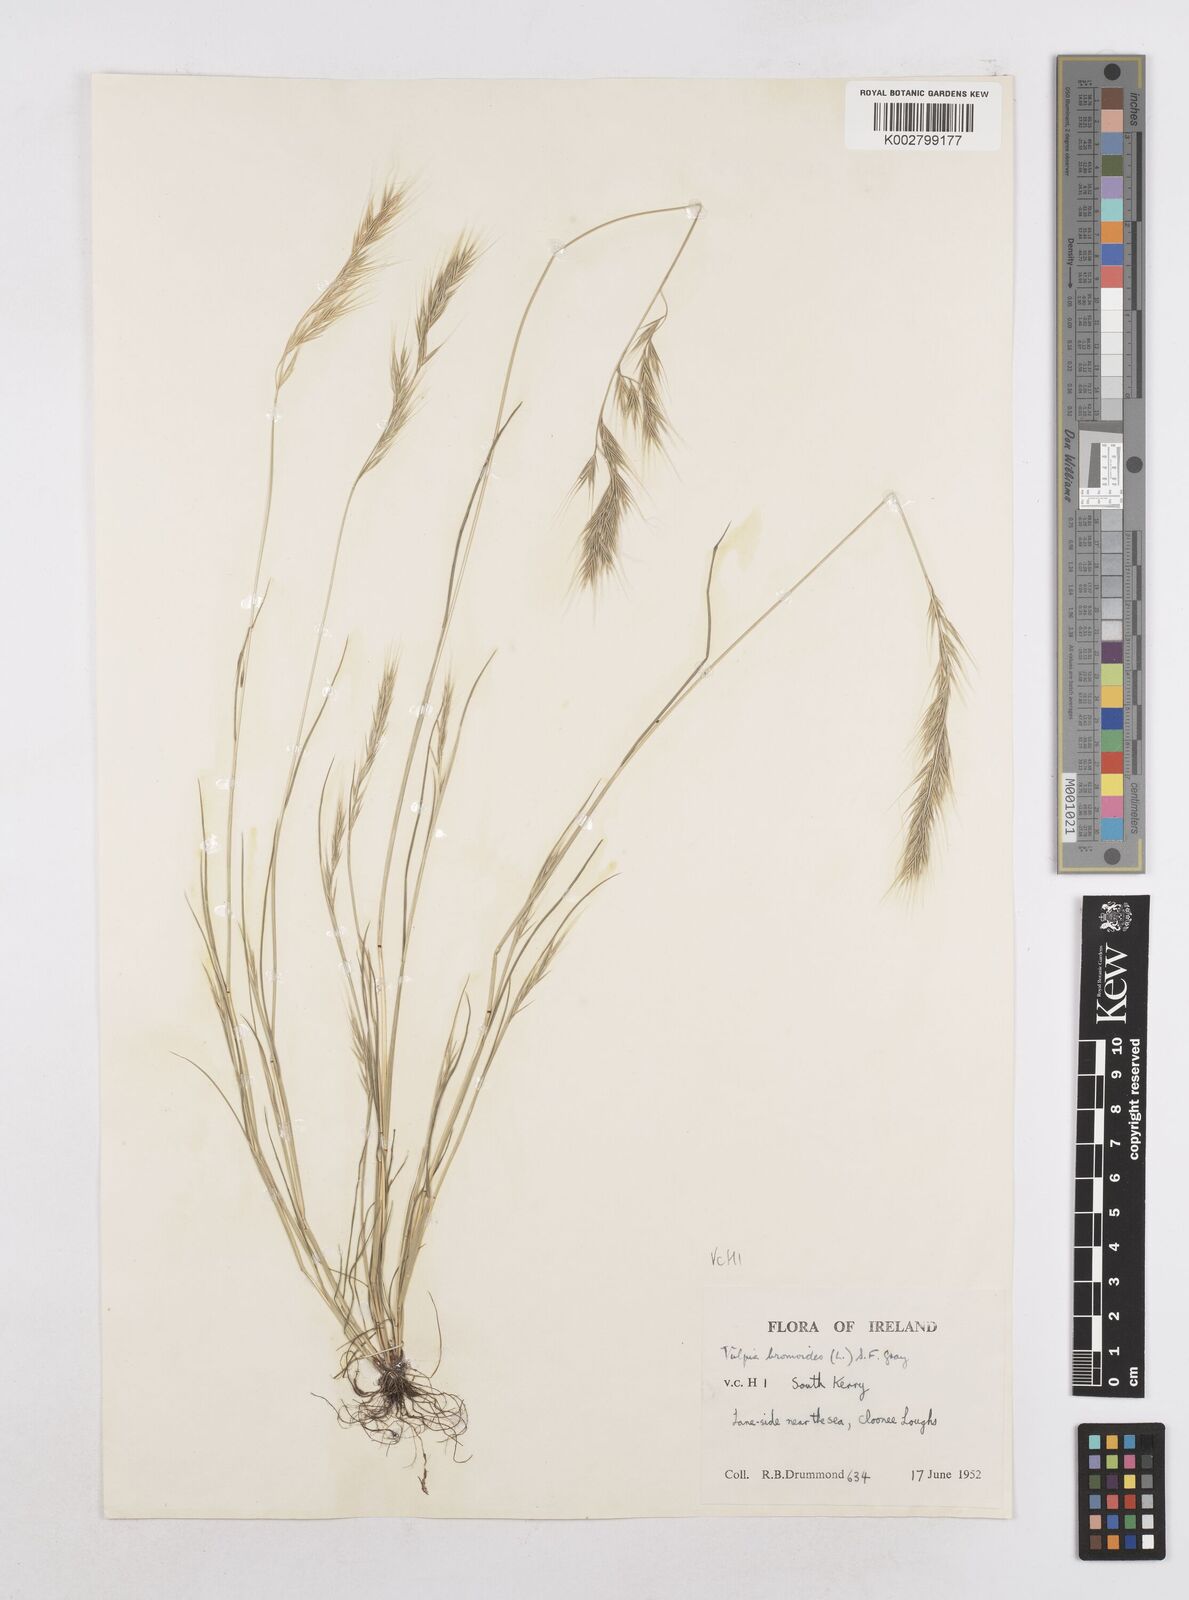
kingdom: Plantae
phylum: Tracheophyta
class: Liliopsida
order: Poales
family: Poaceae
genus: Festuca
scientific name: Festuca bromoides
